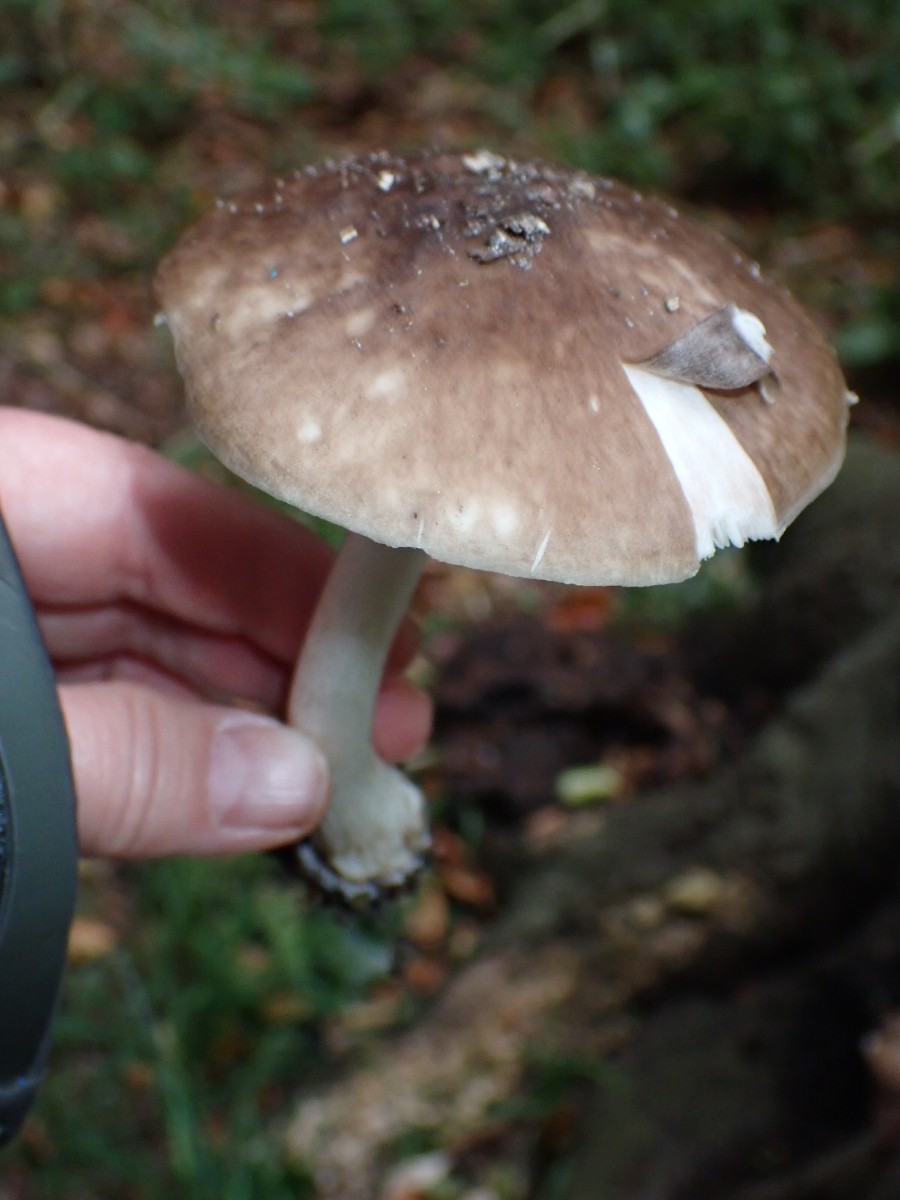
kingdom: Fungi
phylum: Basidiomycota
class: Agaricomycetes
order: Agaricales
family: Pluteaceae
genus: Pluteus
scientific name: Pluteus cervinus
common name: sodfarvet skærmhat
